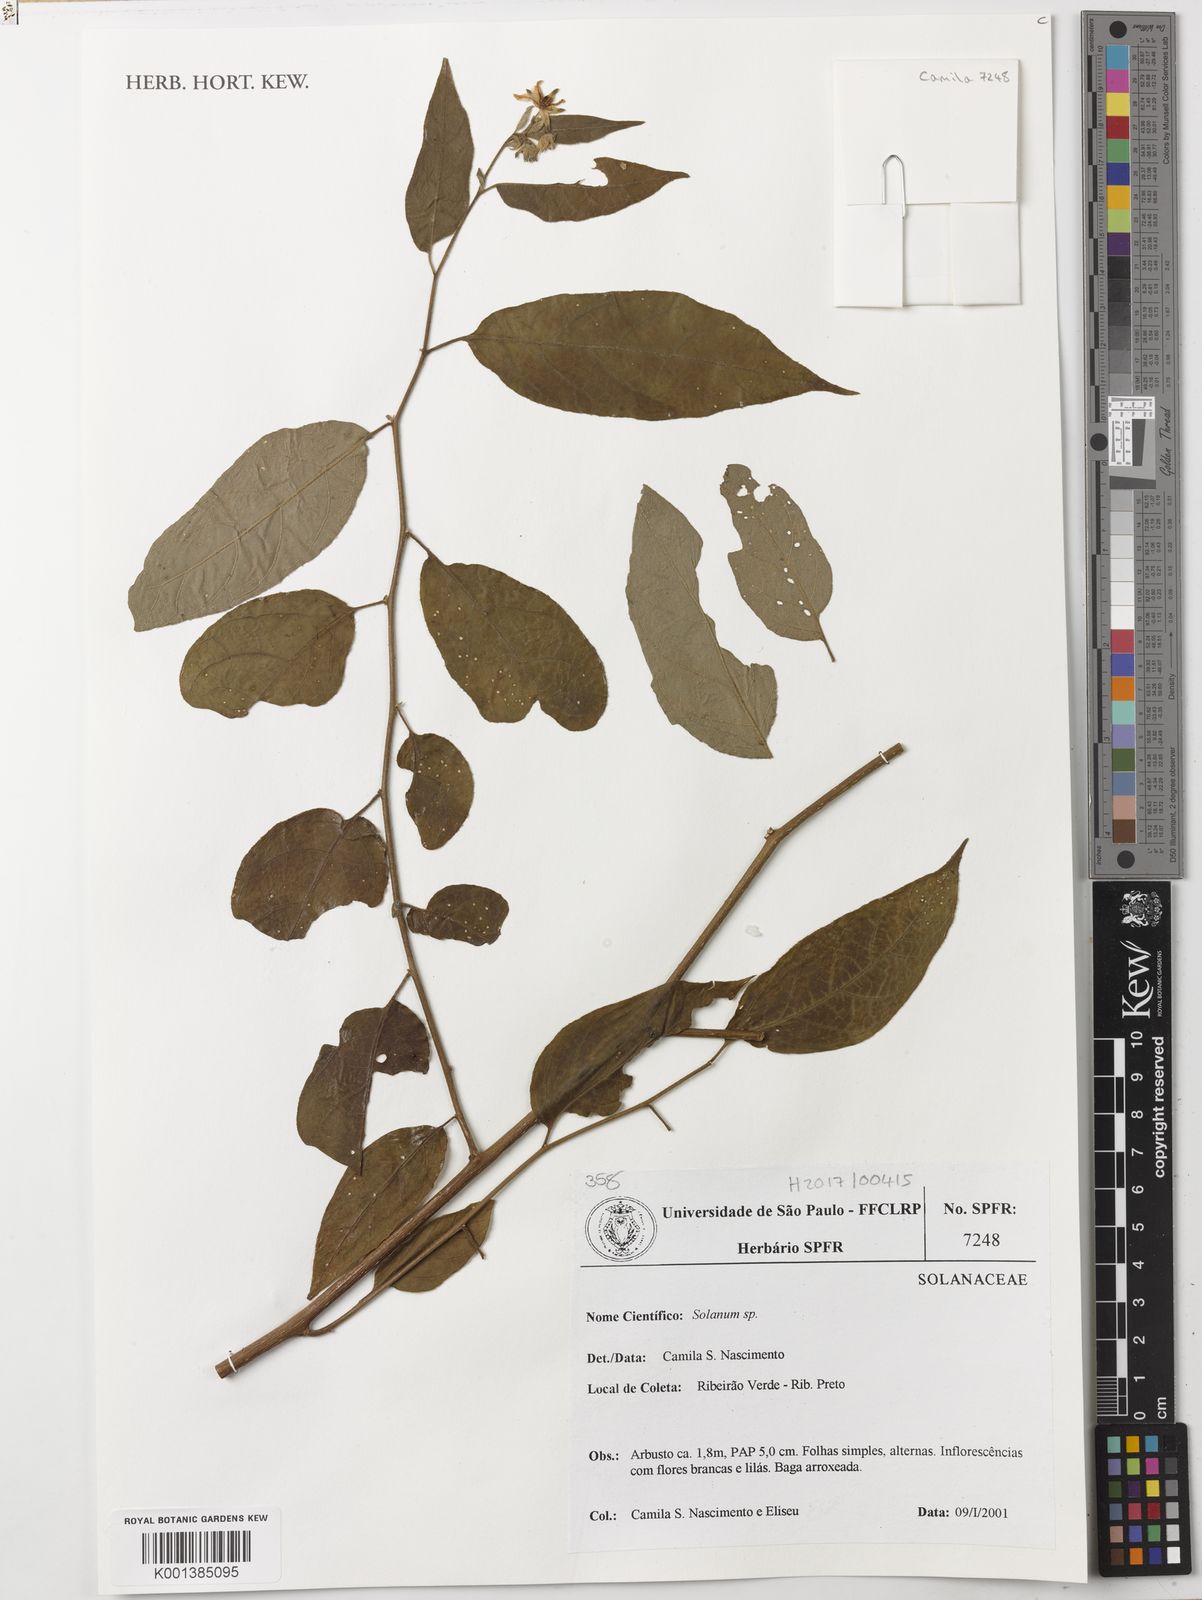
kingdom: Plantae
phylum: Tracheophyta
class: Magnoliopsida
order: Solanales
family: Solanaceae
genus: Solanum
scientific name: Solanum didymum
